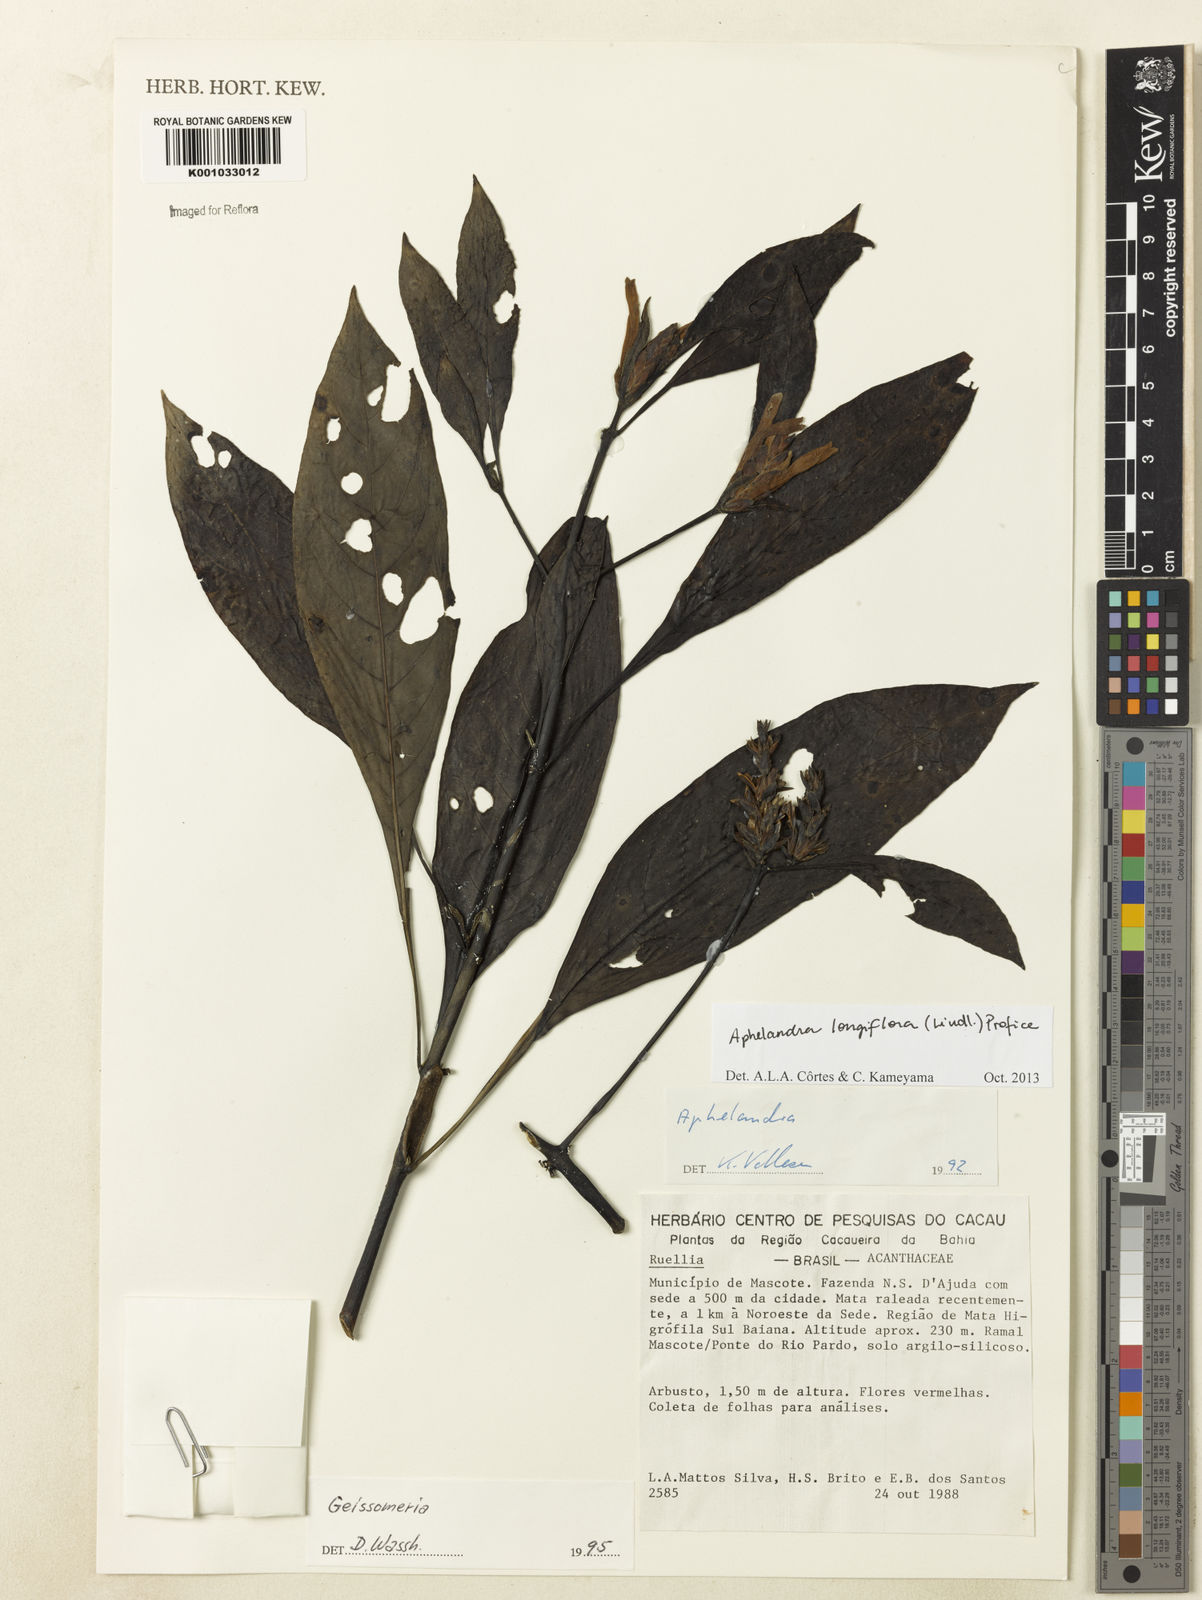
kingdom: Plantae
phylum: Tracheophyta
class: Magnoliopsida
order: Lamiales
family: Acanthaceae
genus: Aphelandra
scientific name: Aphelandra longiflora
